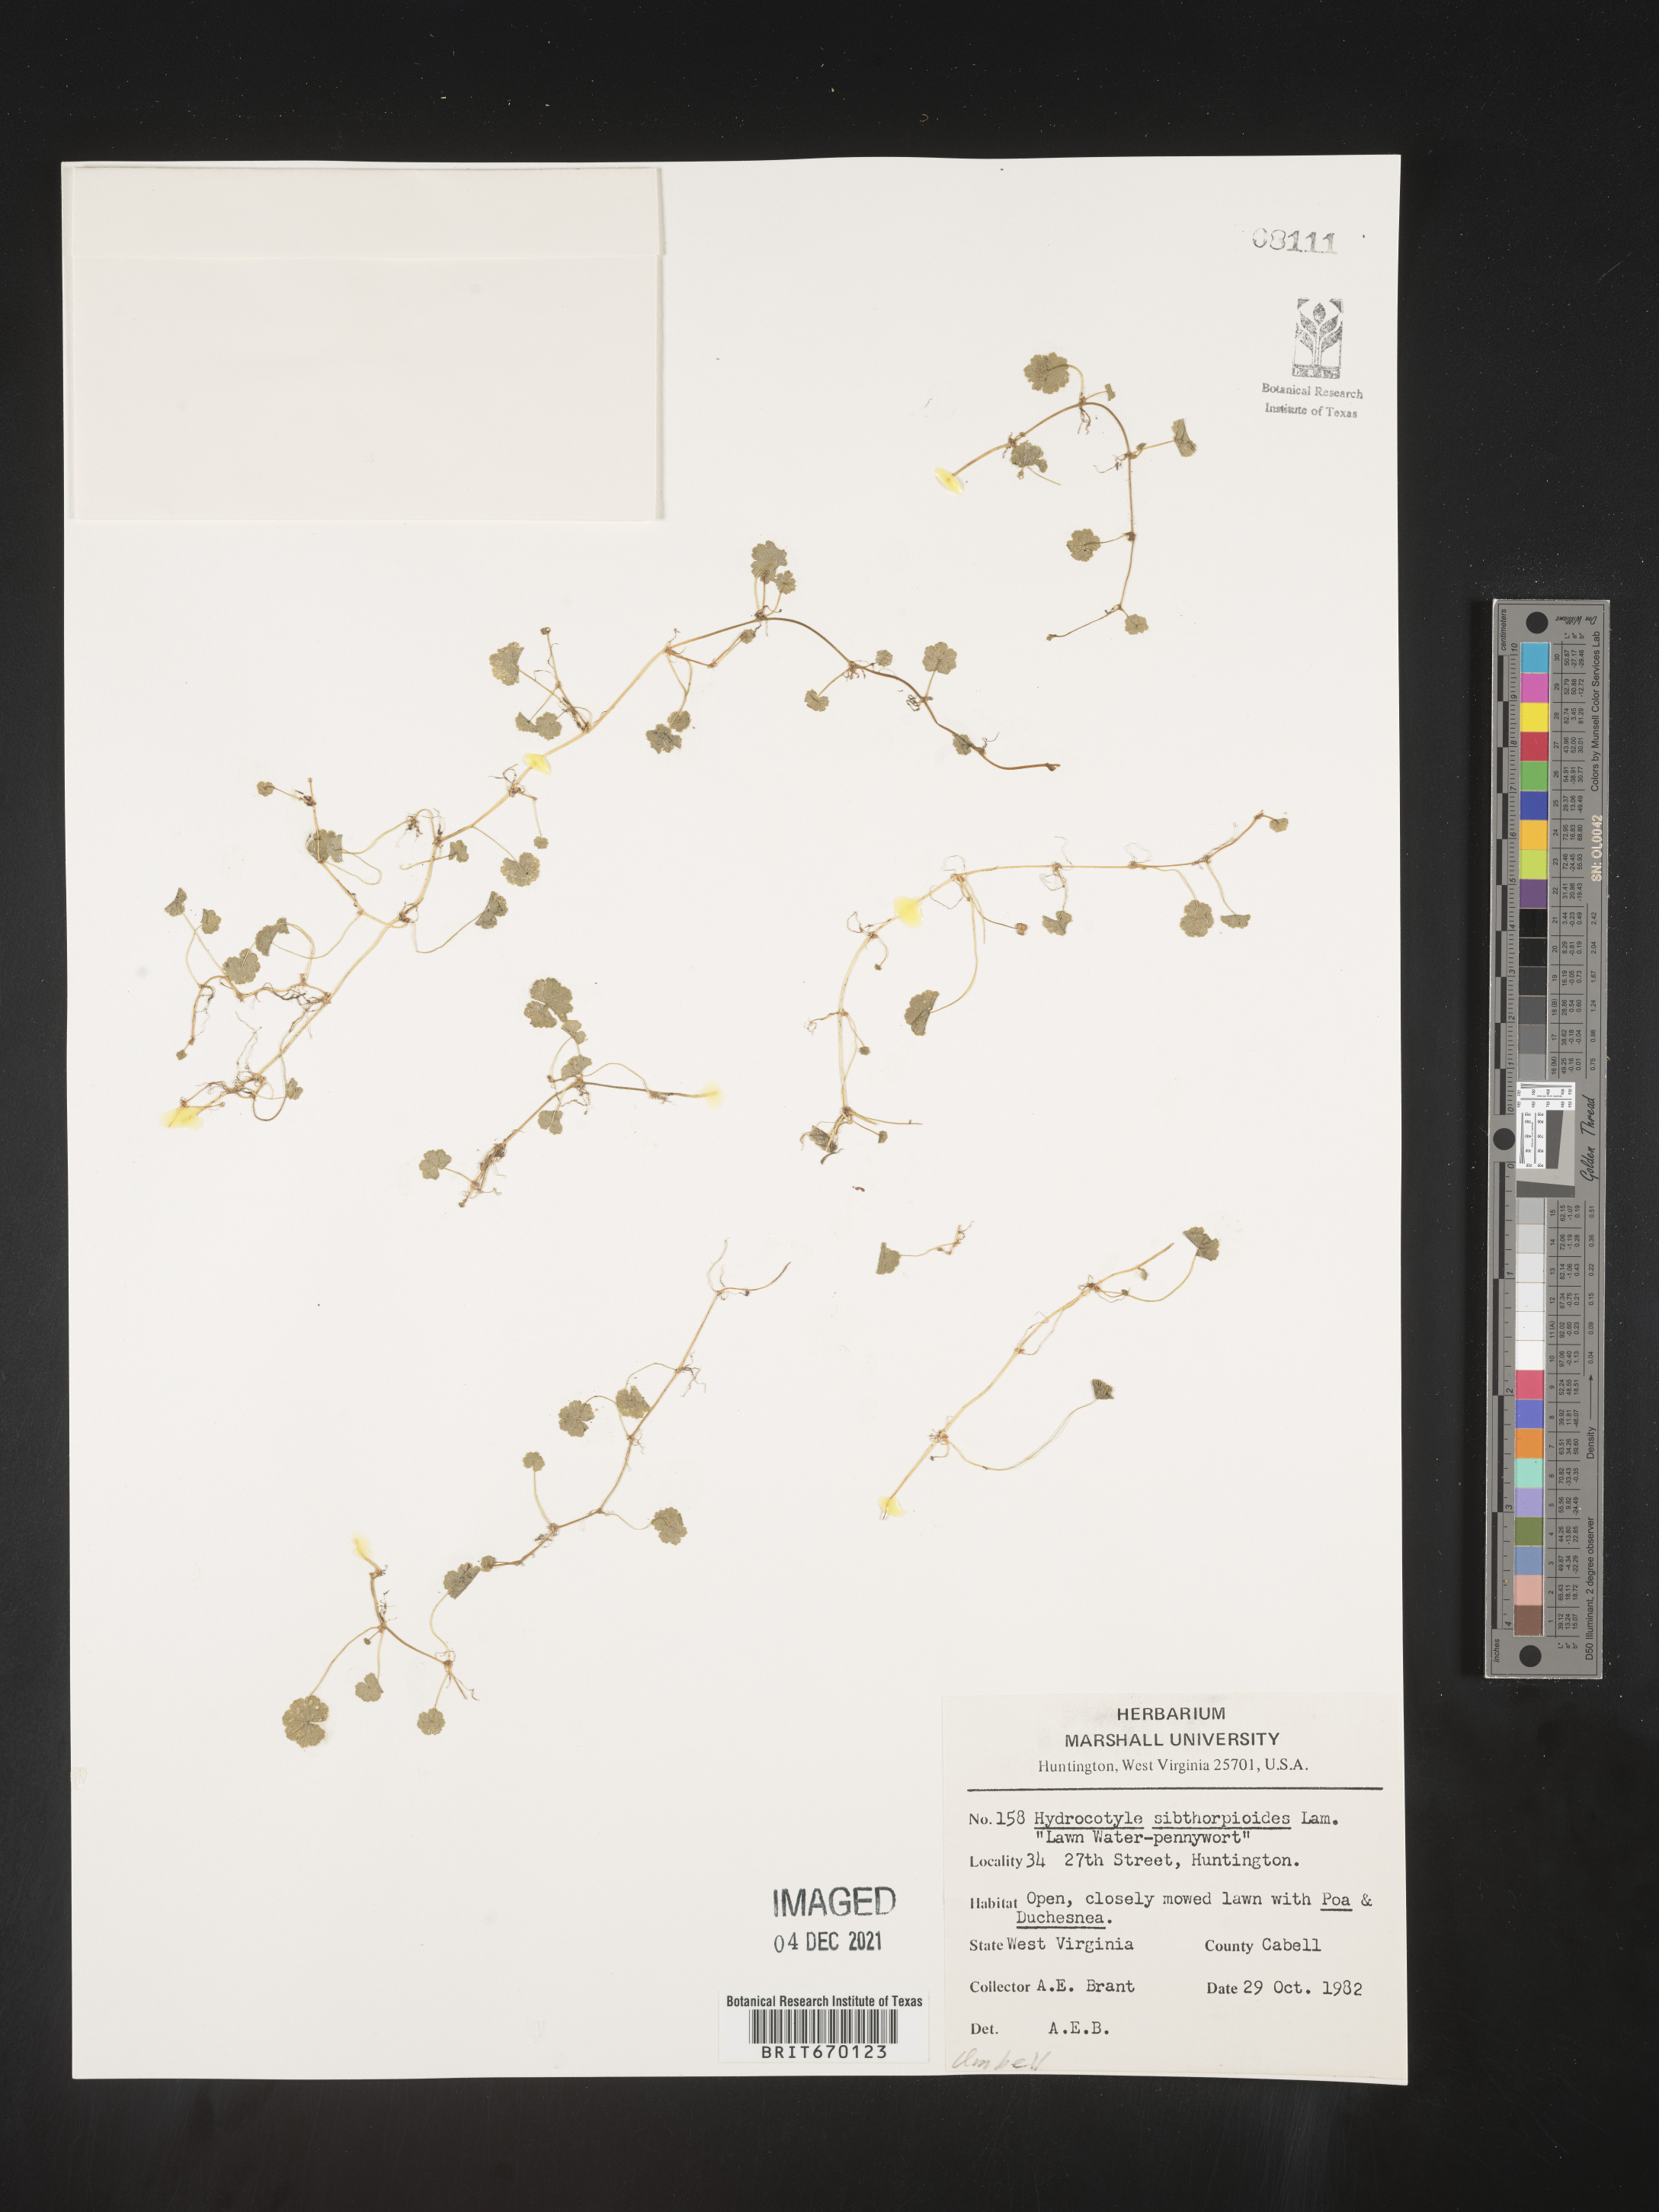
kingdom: Plantae
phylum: Tracheophyta
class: Magnoliopsida
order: Apiales
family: Araliaceae
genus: Hydrocotyle
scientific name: Hydrocotyle sibthorpioides
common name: Lawn marshpennywort
